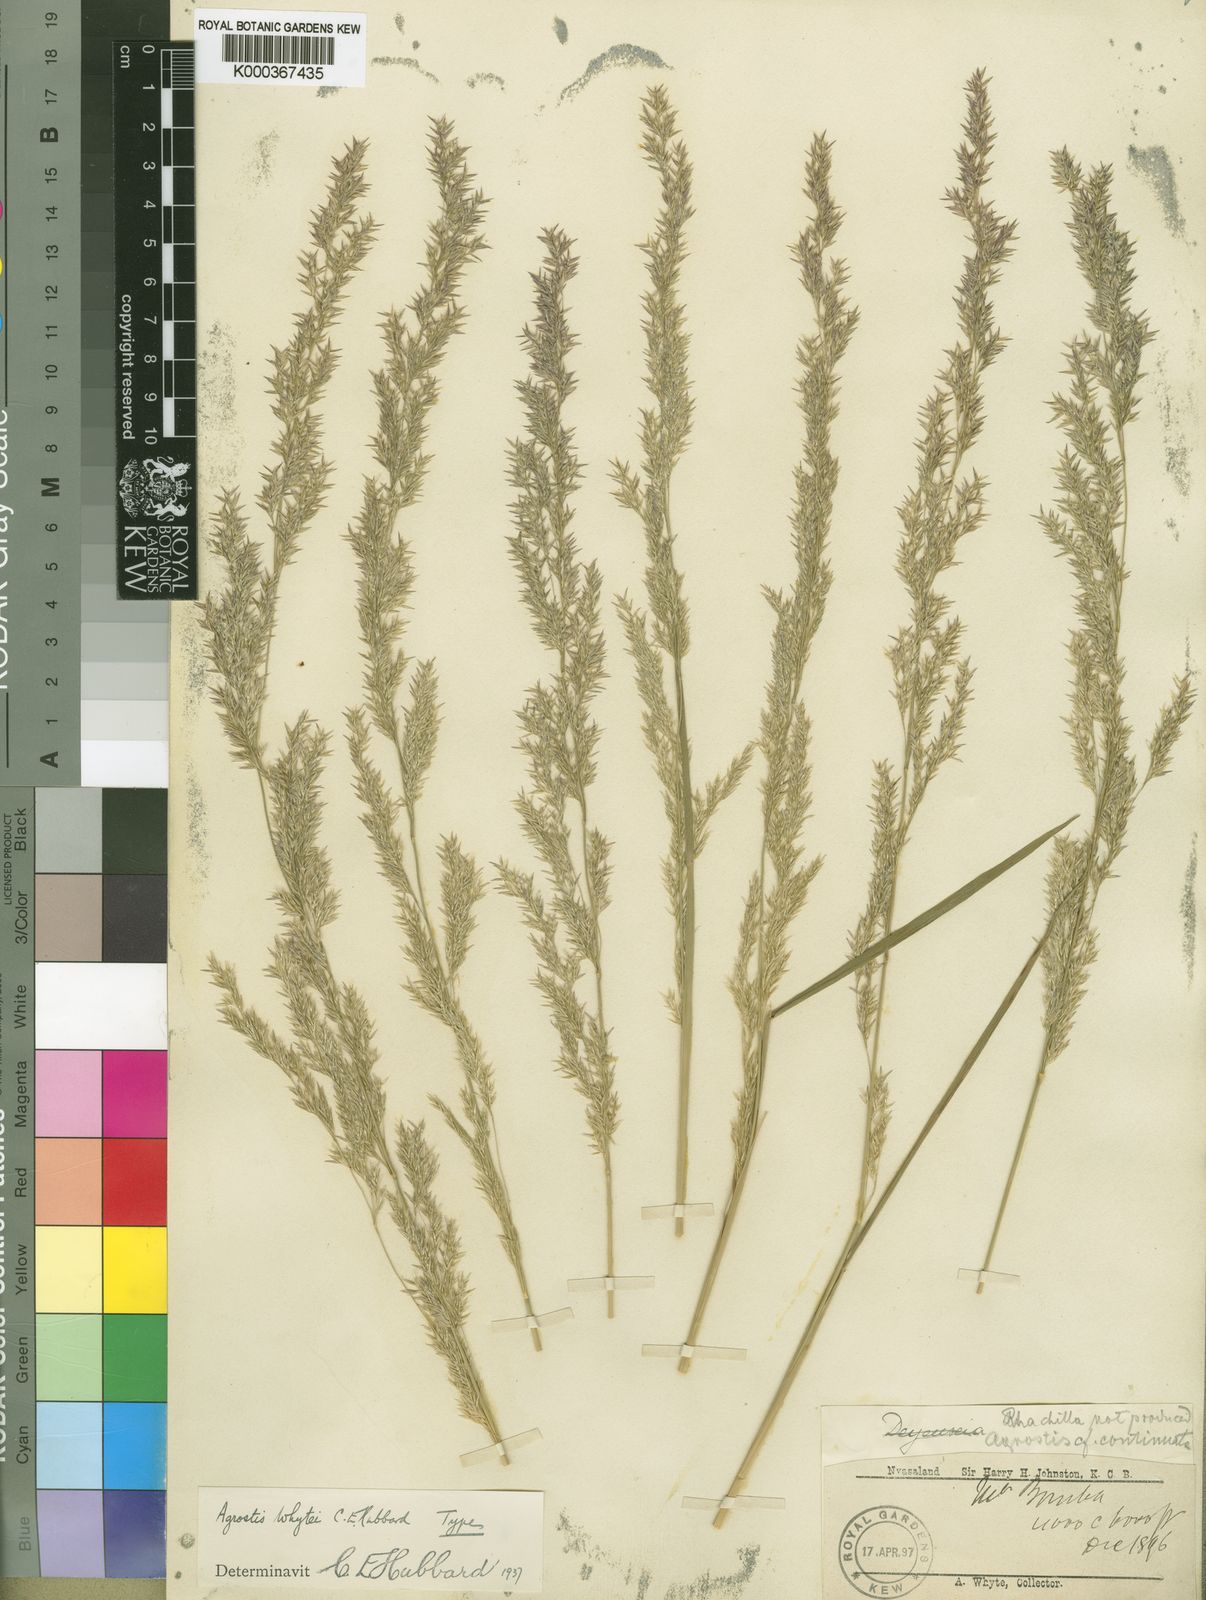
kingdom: Plantae
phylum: Tracheophyta
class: Liliopsida
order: Poales
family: Poaceae
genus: Agrostis
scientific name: Agrostis continuata
